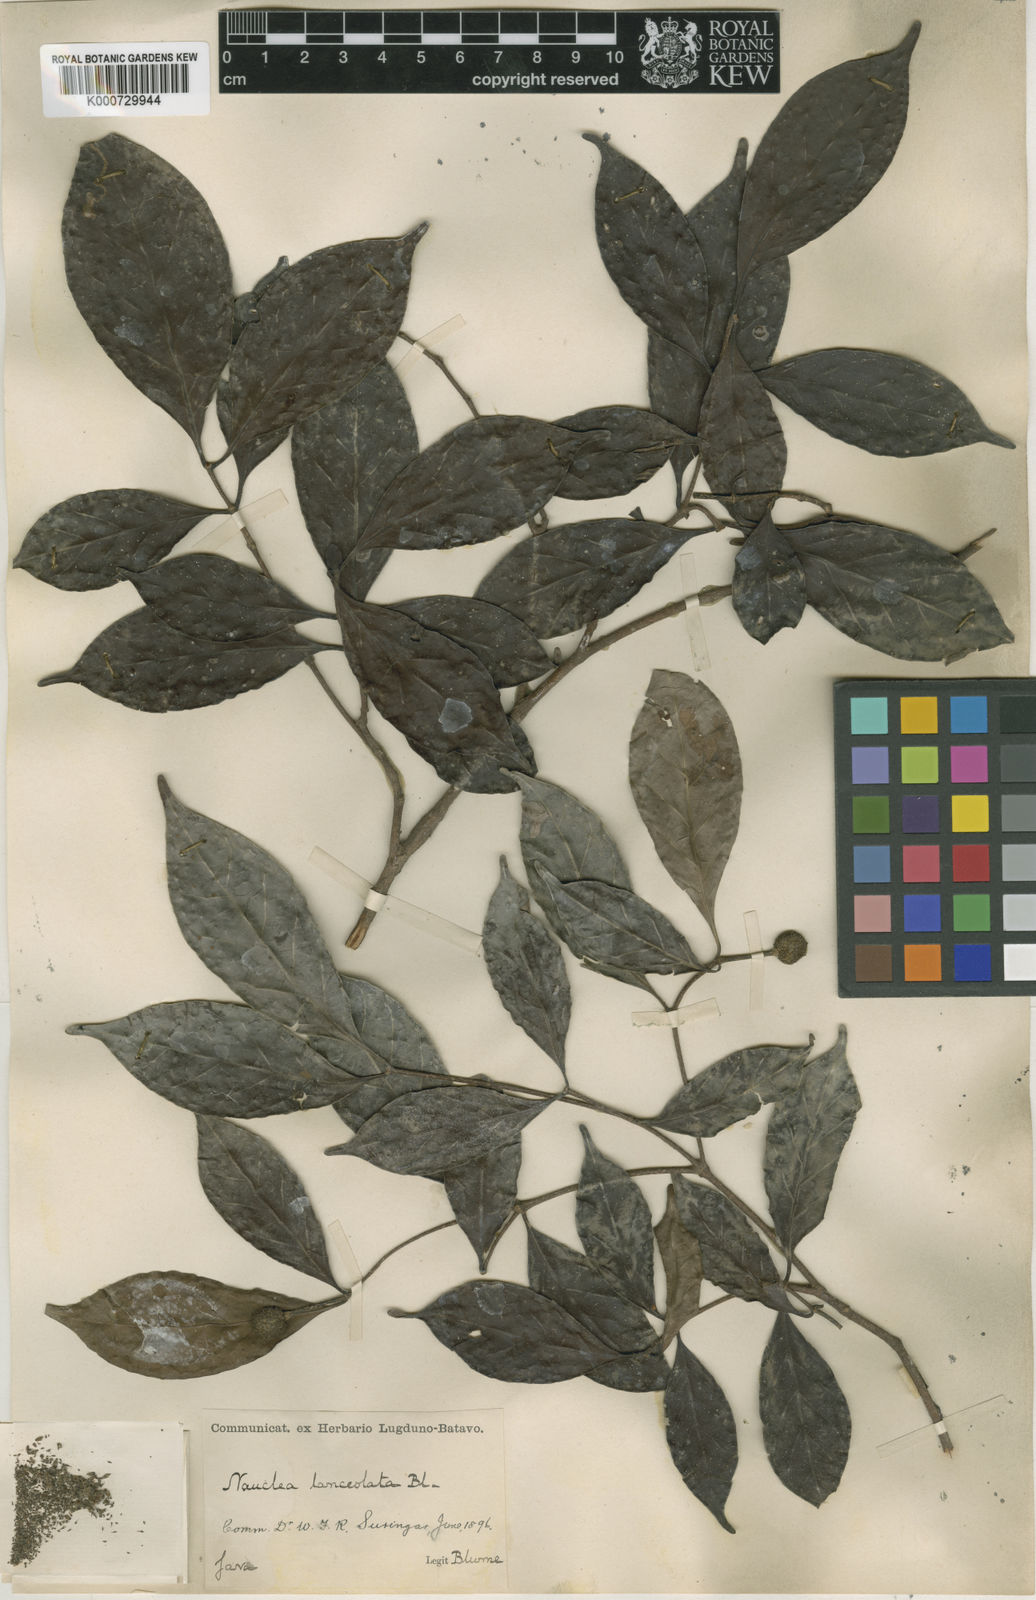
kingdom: Plantae
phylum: Tracheophyta
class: Magnoliopsida
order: Gentianales
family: Rubiaceae
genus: Neonauclea
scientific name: Neonauclea lanceolata
